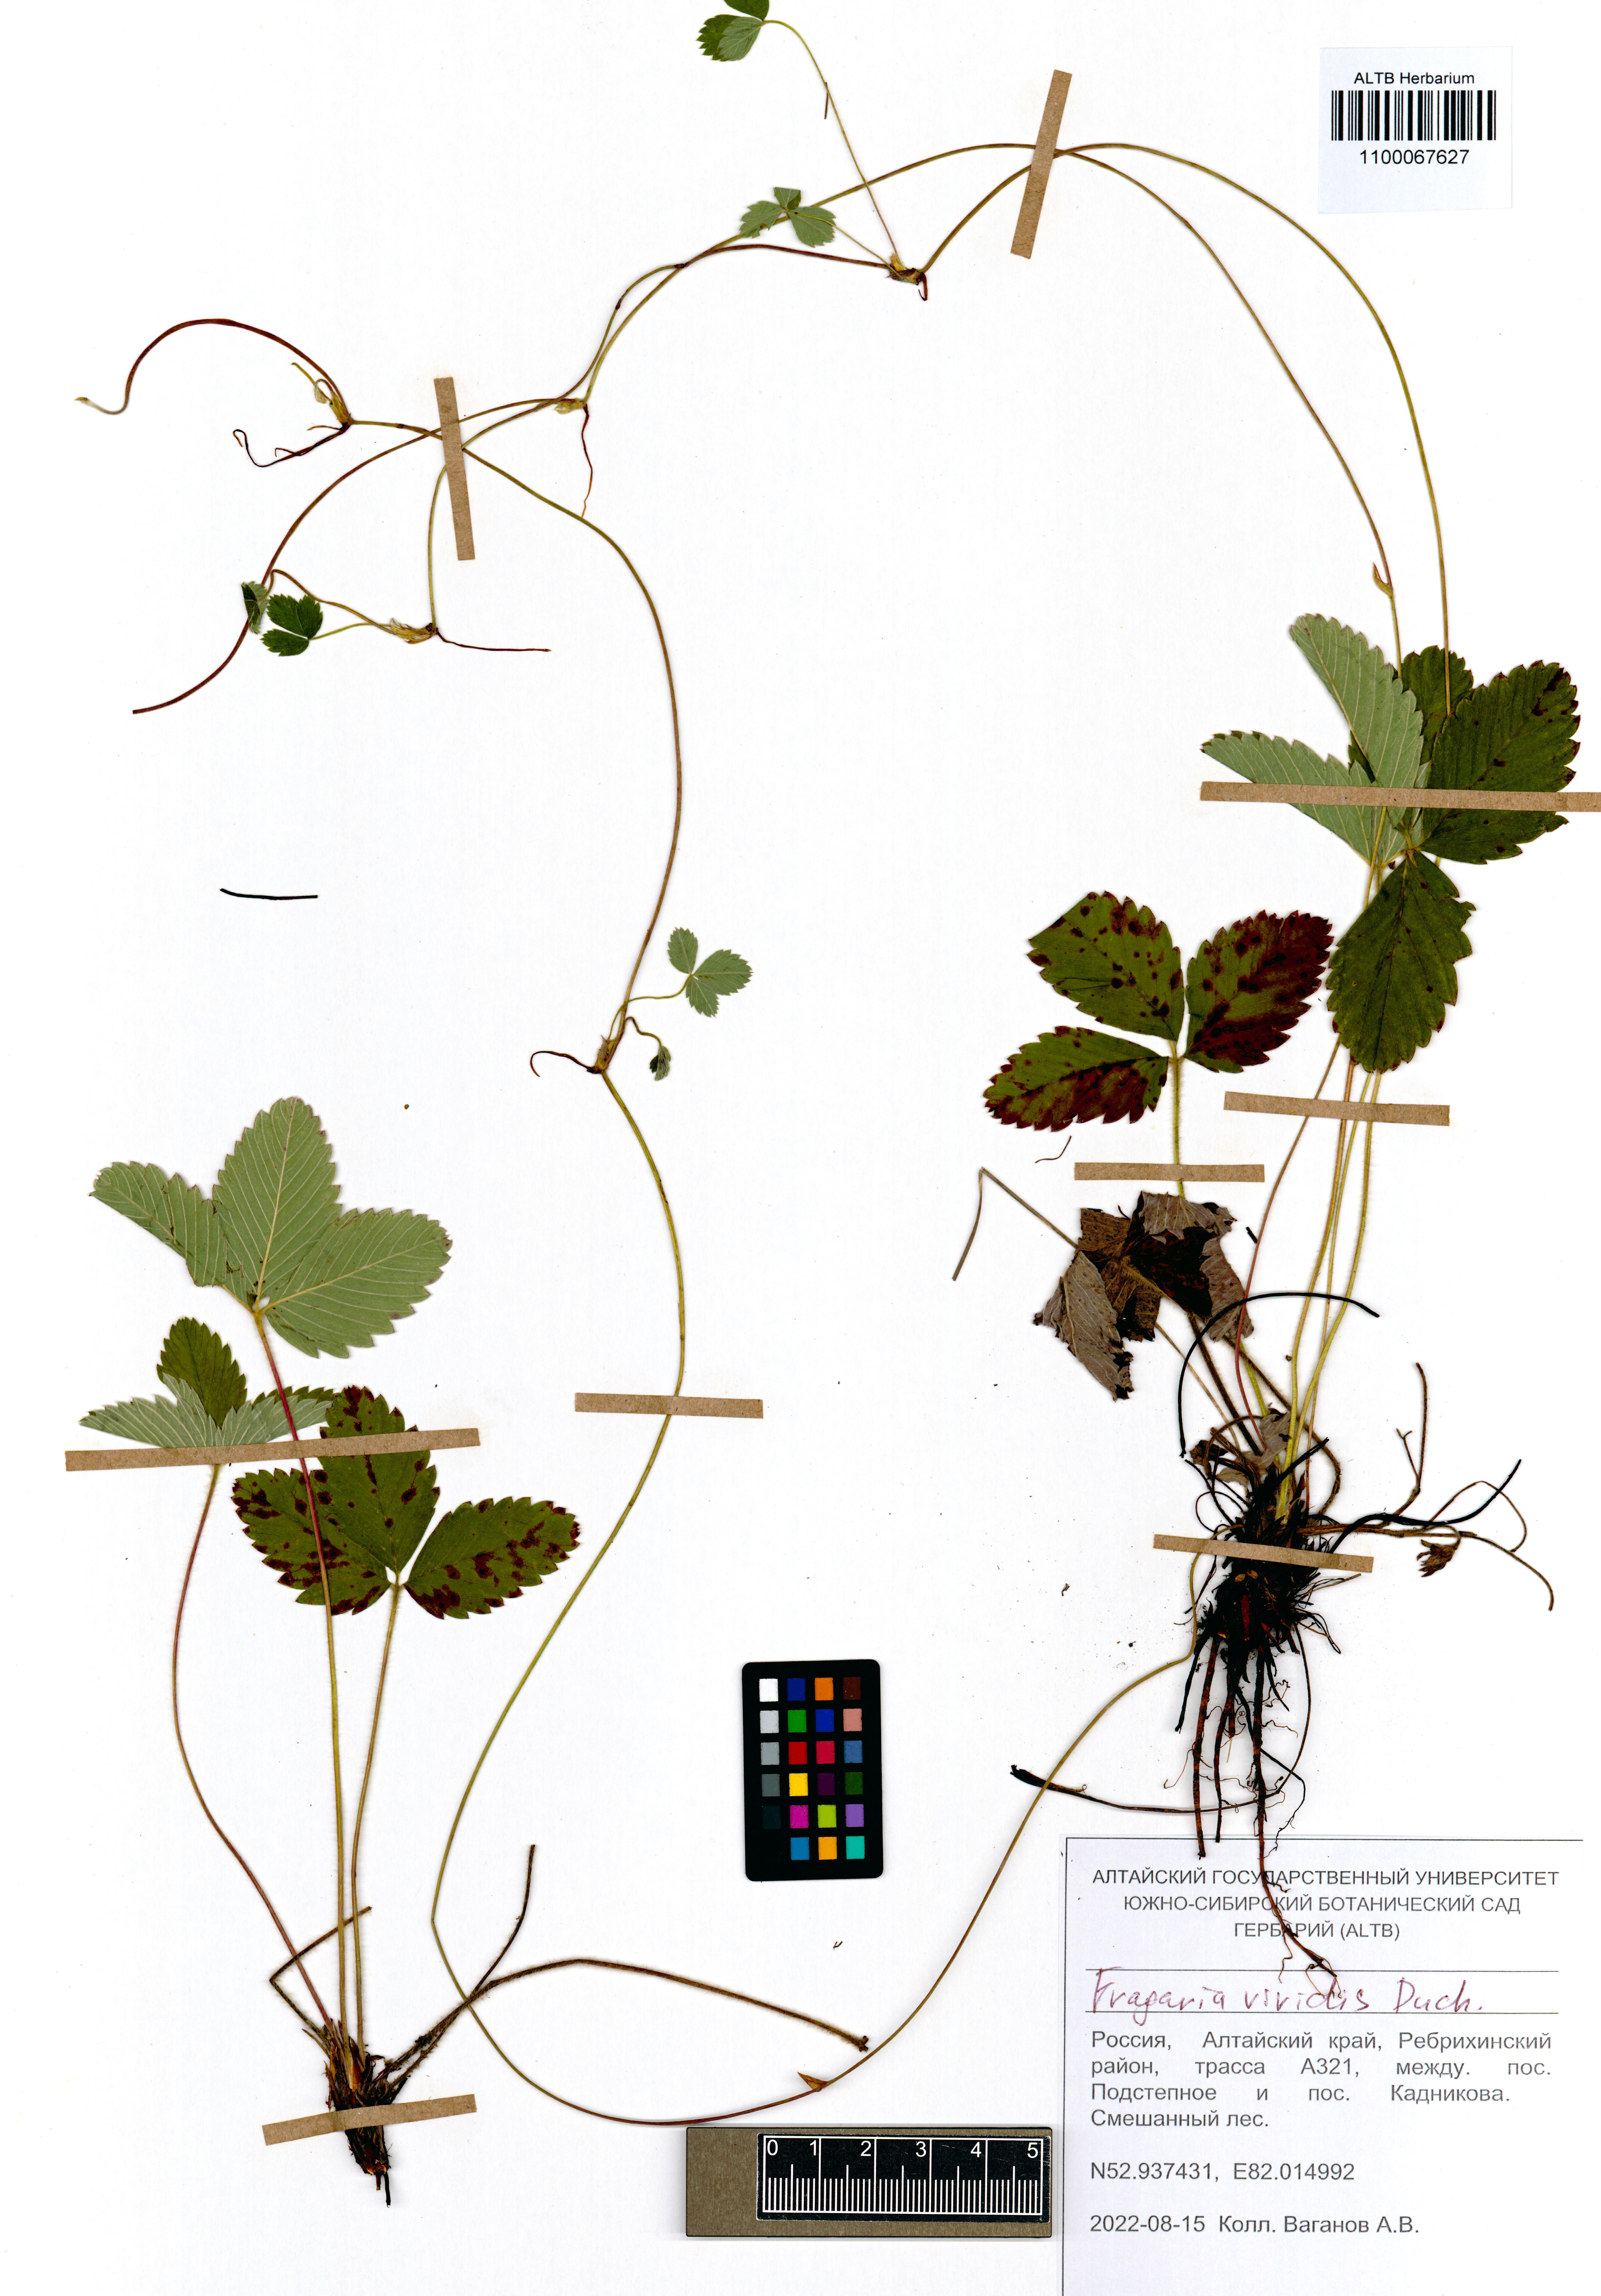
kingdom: Plantae
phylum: Tracheophyta
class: Magnoliopsida
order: Rosales
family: Rosaceae
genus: Fragaria
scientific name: Fragaria viridis
